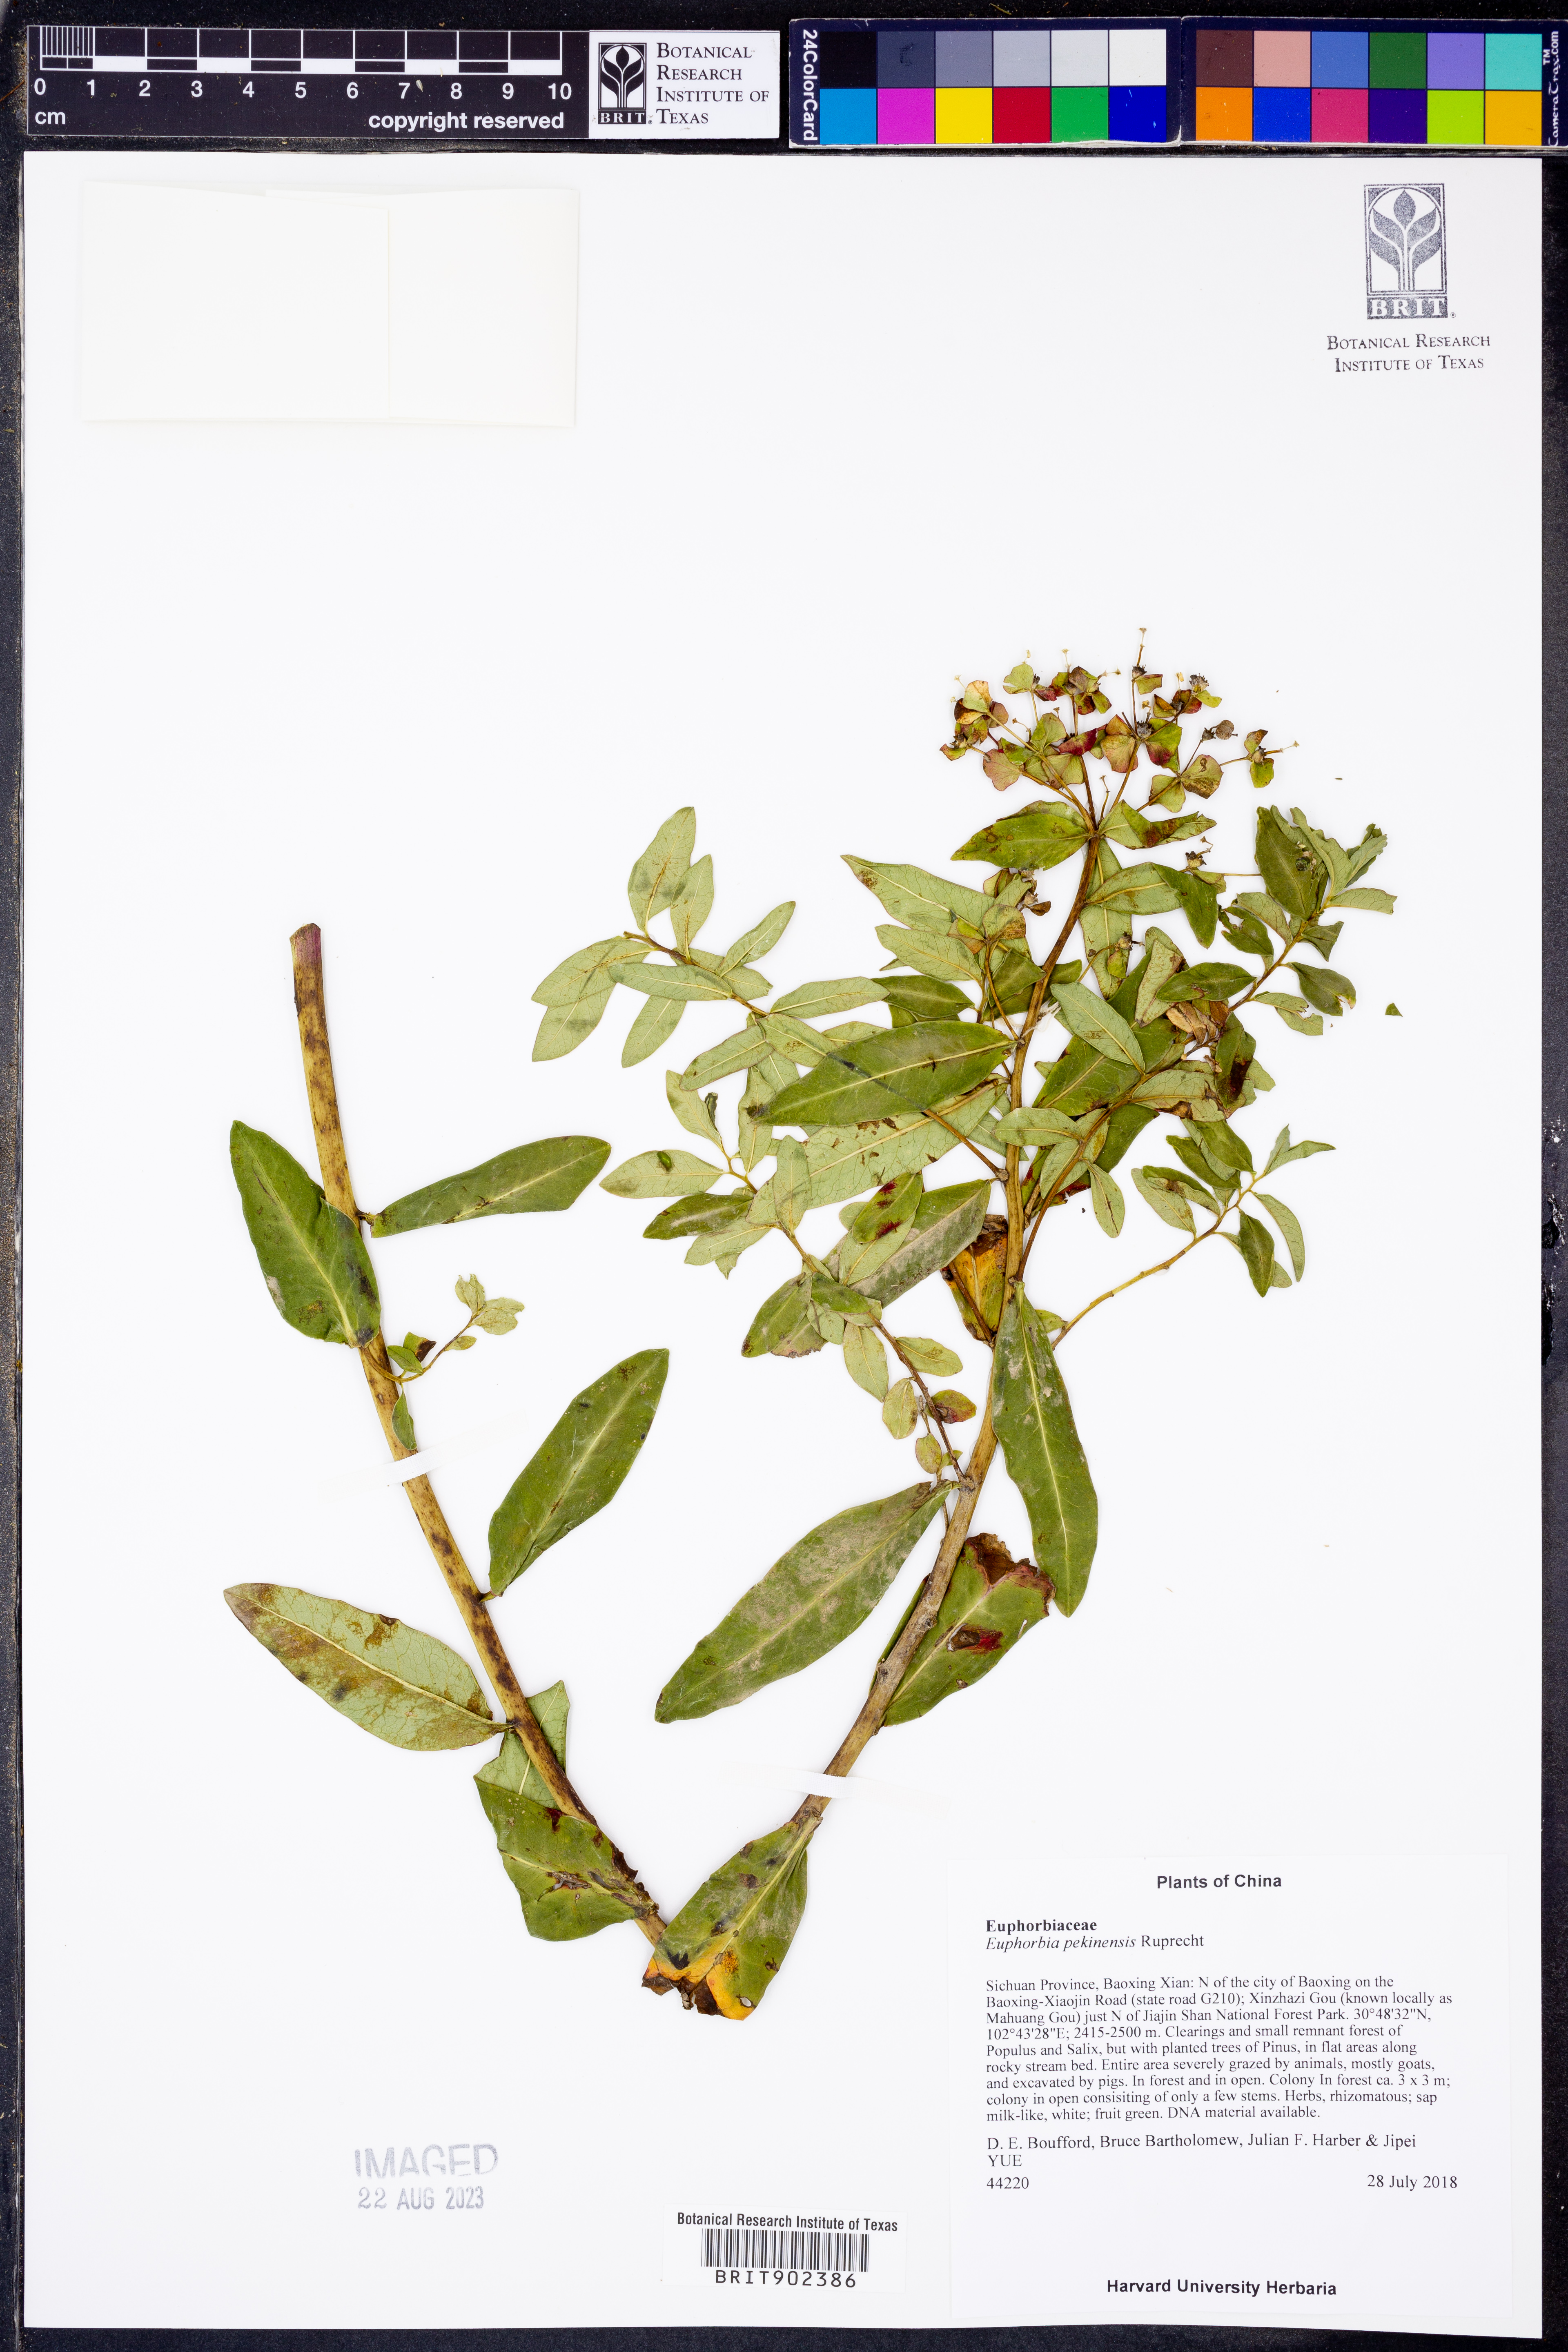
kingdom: Plantae
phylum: Tracheophyta
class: Magnoliopsida
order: Malpighiales
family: Euphorbiaceae
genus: Euphorbia
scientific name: Euphorbia pekinensis
